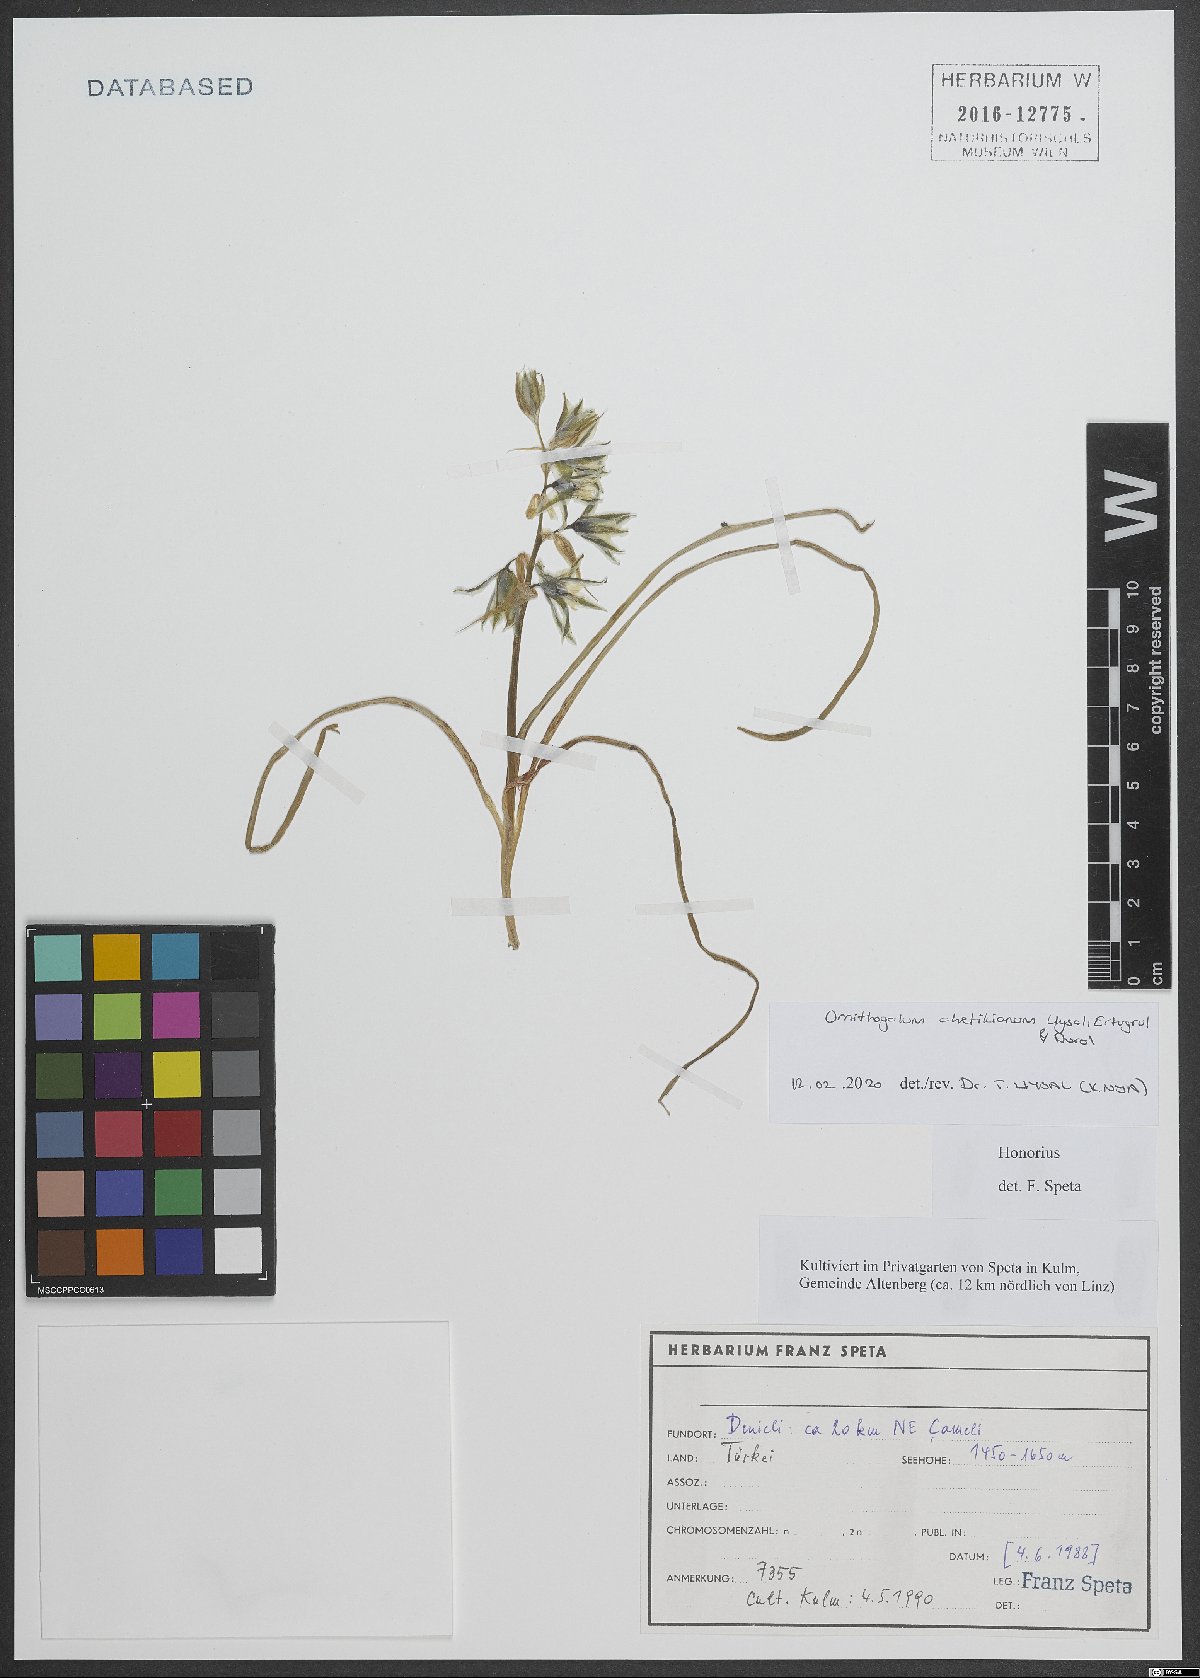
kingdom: Plantae
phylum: Tracheophyta
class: Liliopsida
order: Asparagales
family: Asparagaceae
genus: Ornithogalum
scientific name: Ornithogalum chetikianum
